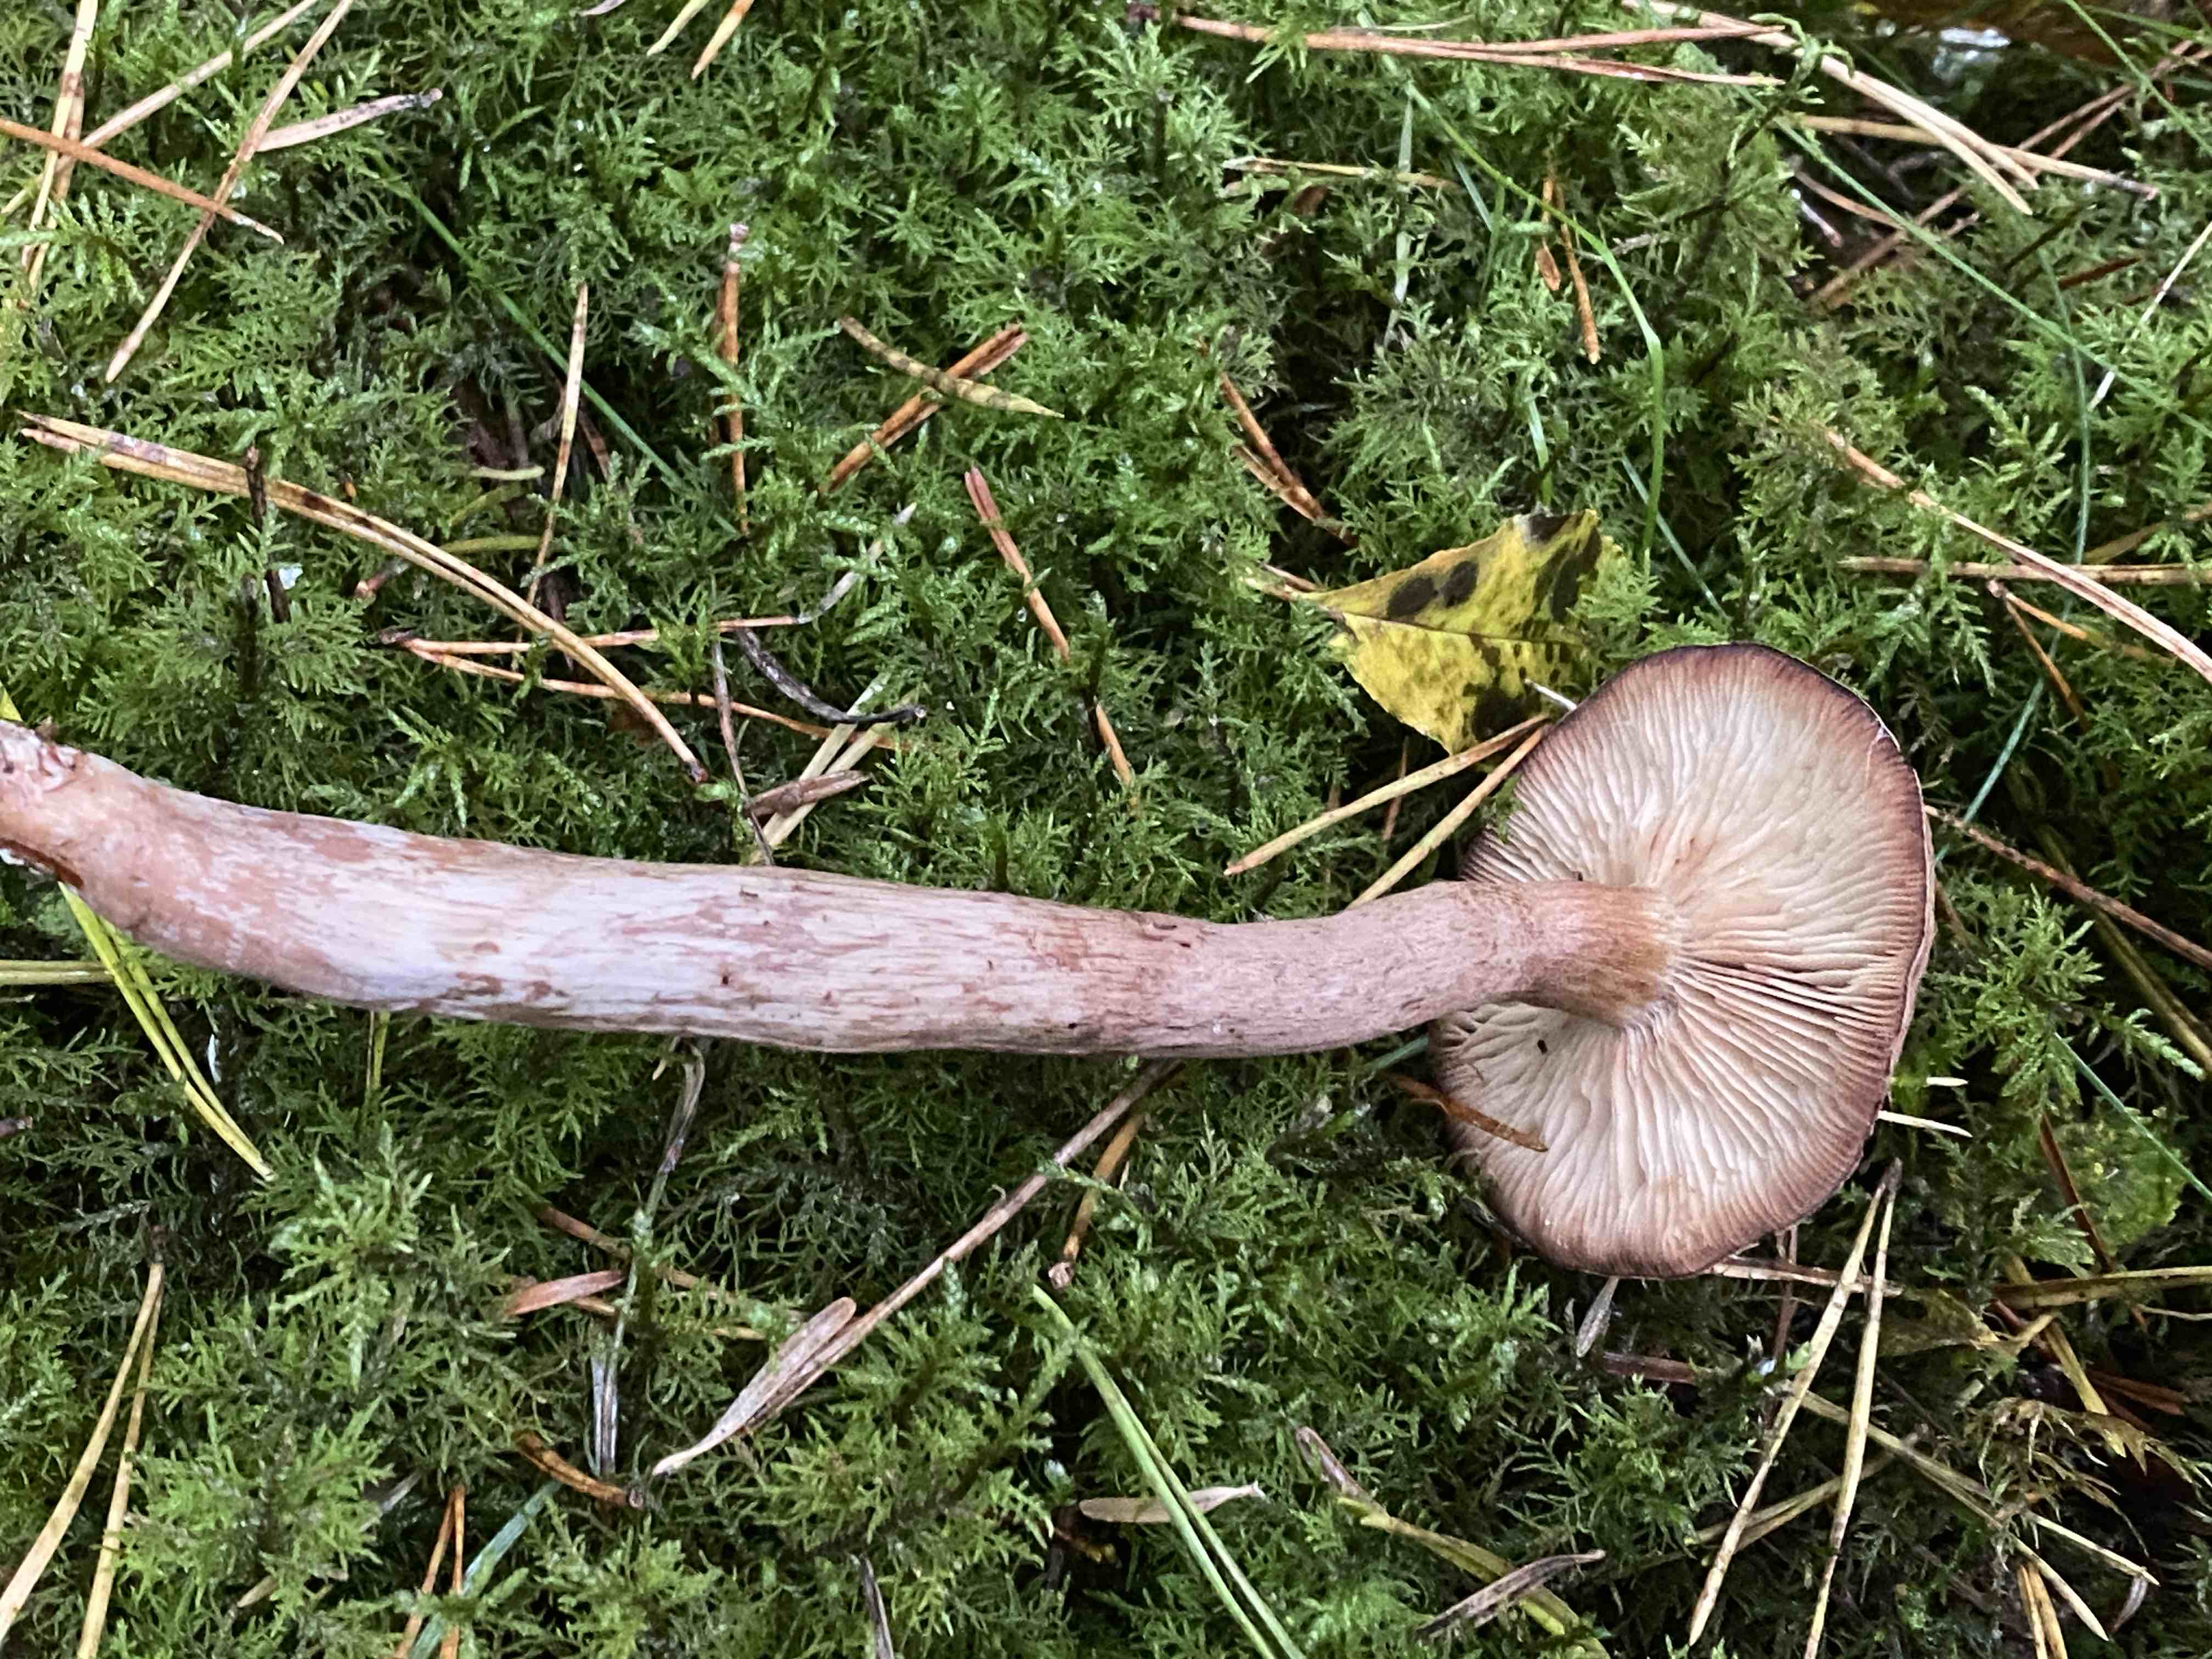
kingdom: Fungi
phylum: Basidiomycota
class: Agaricomycetes
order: Agaricales
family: Tricholomataceae
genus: Tricholoma
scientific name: Tricholoma
